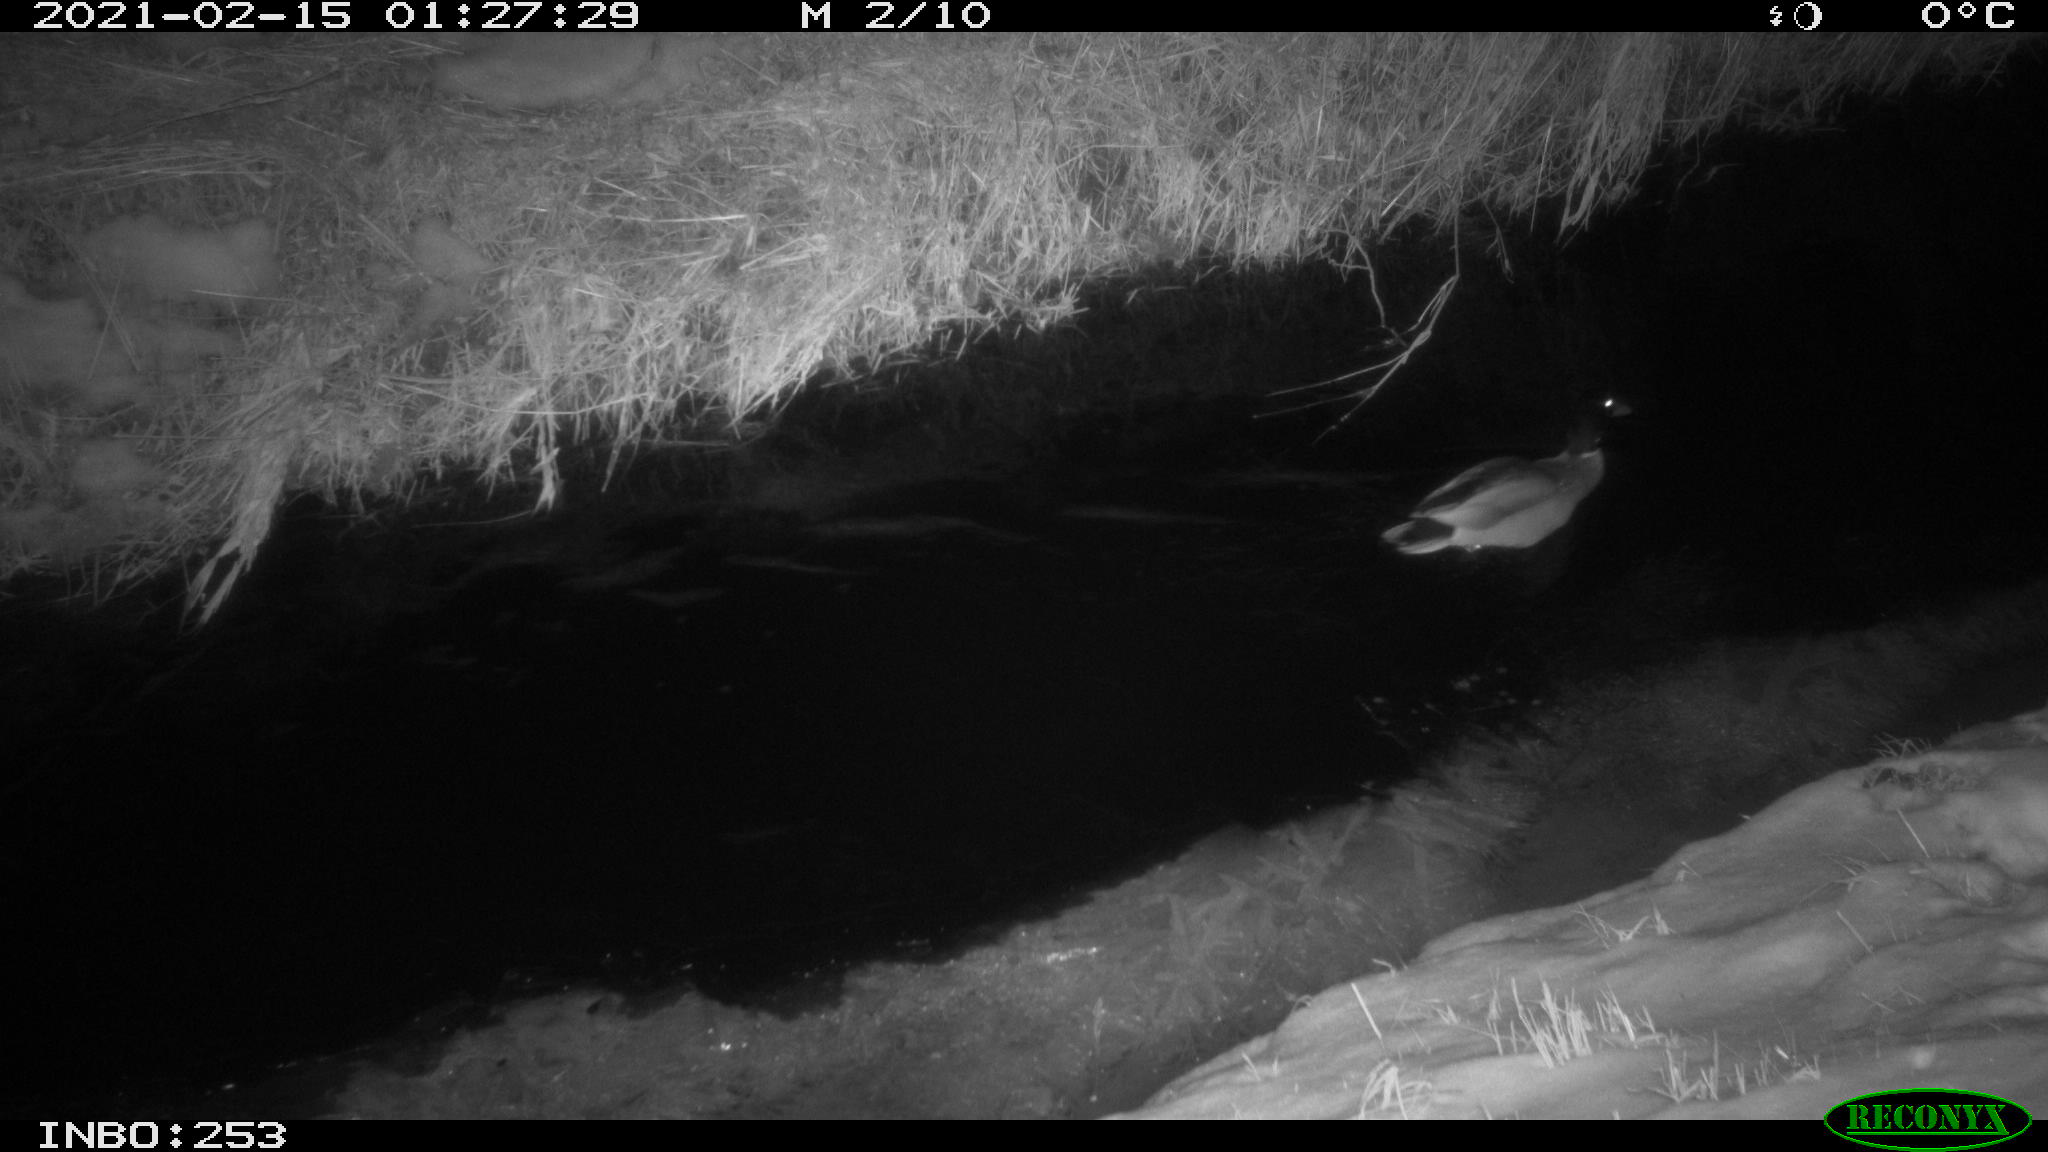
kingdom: Animalia
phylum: Chordata
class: Aves
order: Anseriformes
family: Anatidae
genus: Anas
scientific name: Anas platyrhynchos
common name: Mallard
